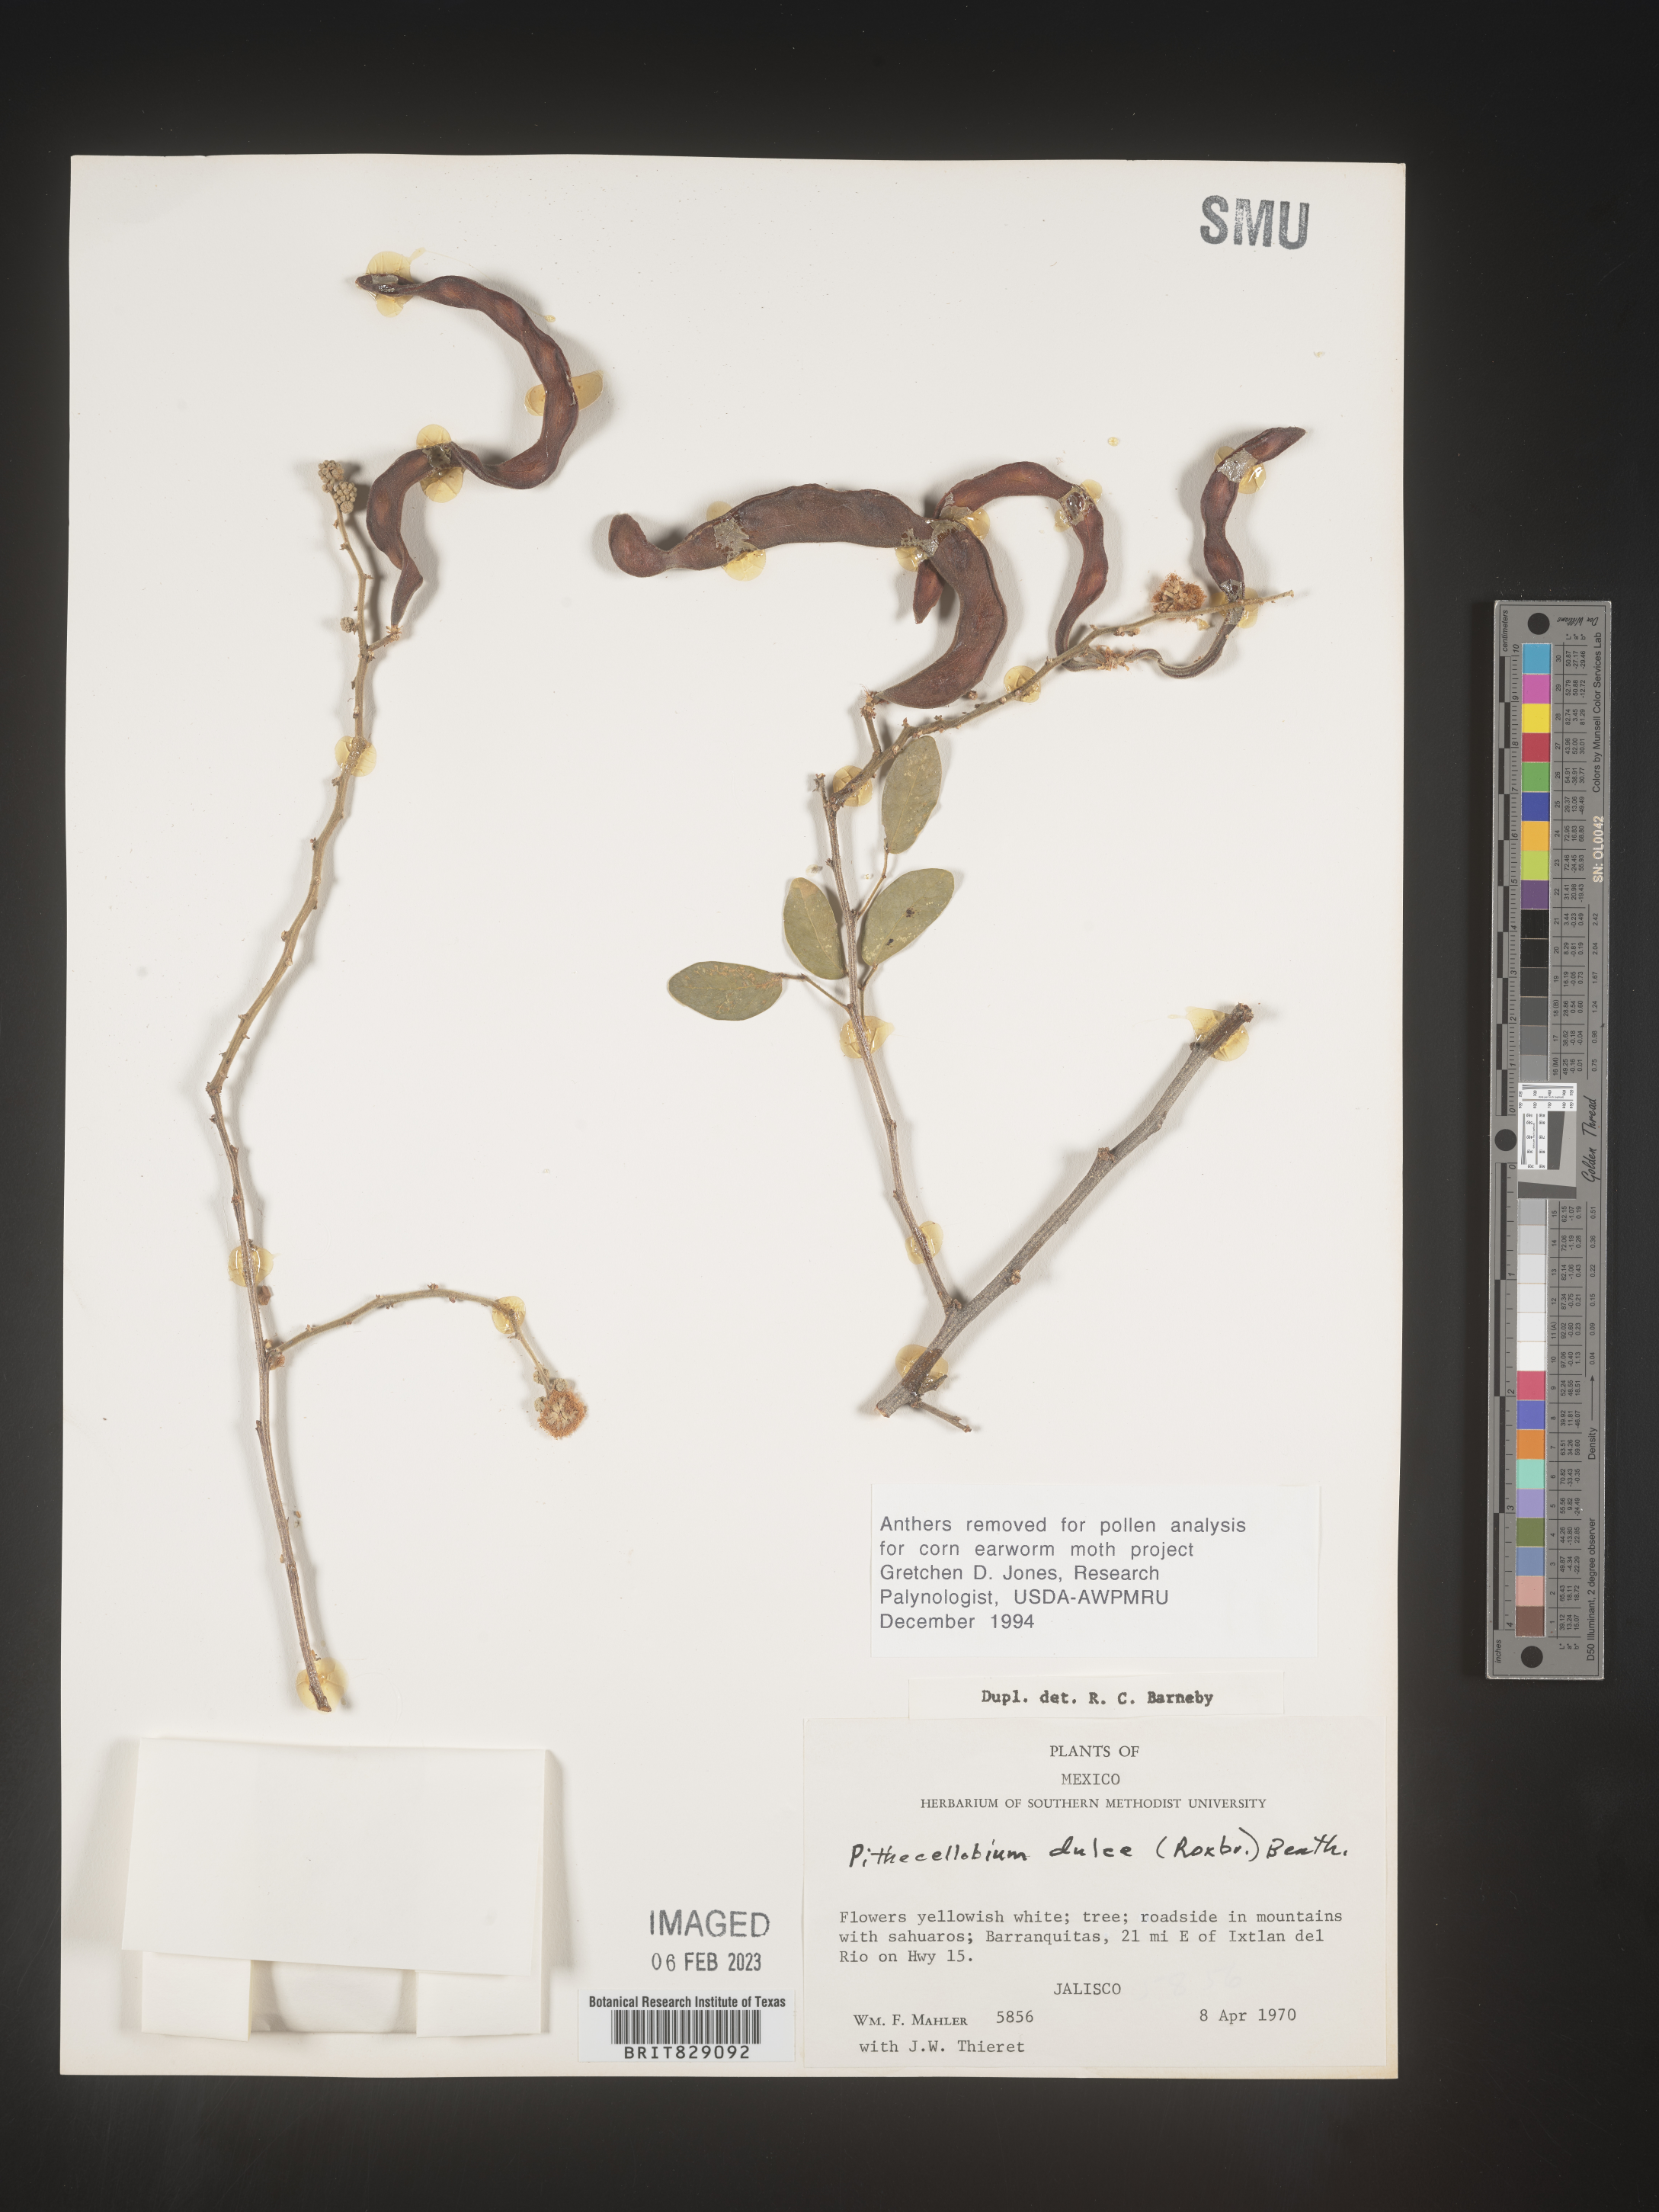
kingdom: Plantae
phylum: Tracheophyta
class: Magnoliopsida
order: Fabales
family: Fabaceae
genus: Pithecellobium
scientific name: Pithecellobium
